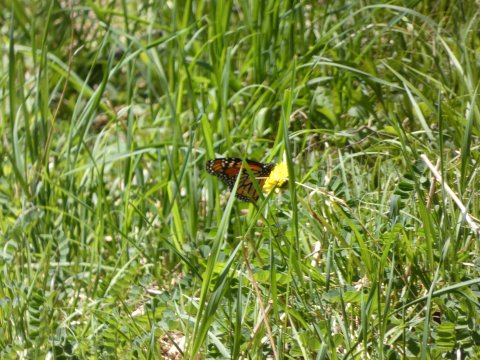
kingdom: Animalia
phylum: Arthropoda
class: Insecta
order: Lepidoptera
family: Nymphalidae
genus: Danaus
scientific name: Danaus plexippus
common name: Monarch
